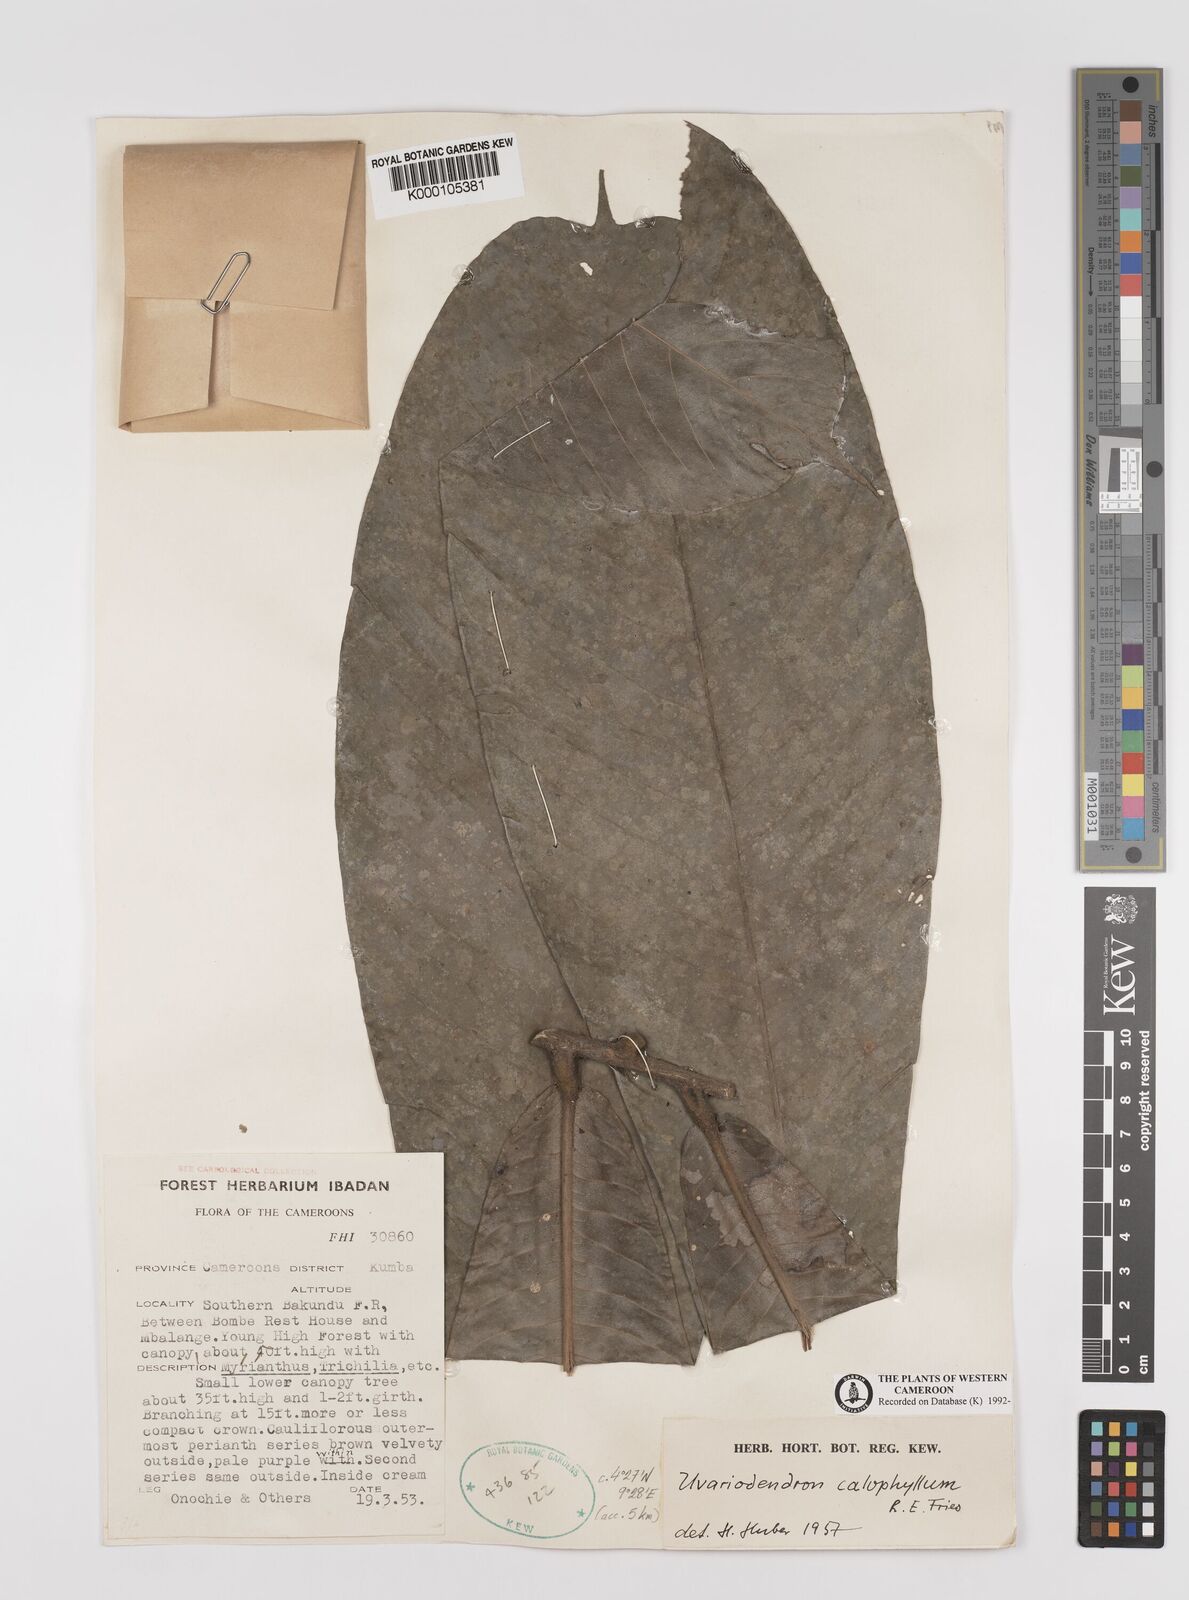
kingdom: Plantae
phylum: Tracheophyta
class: Magnoliopsida
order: Magnoliales
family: Annonaceae
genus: Uvariodendron
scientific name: Uvariodendron calophyllum
